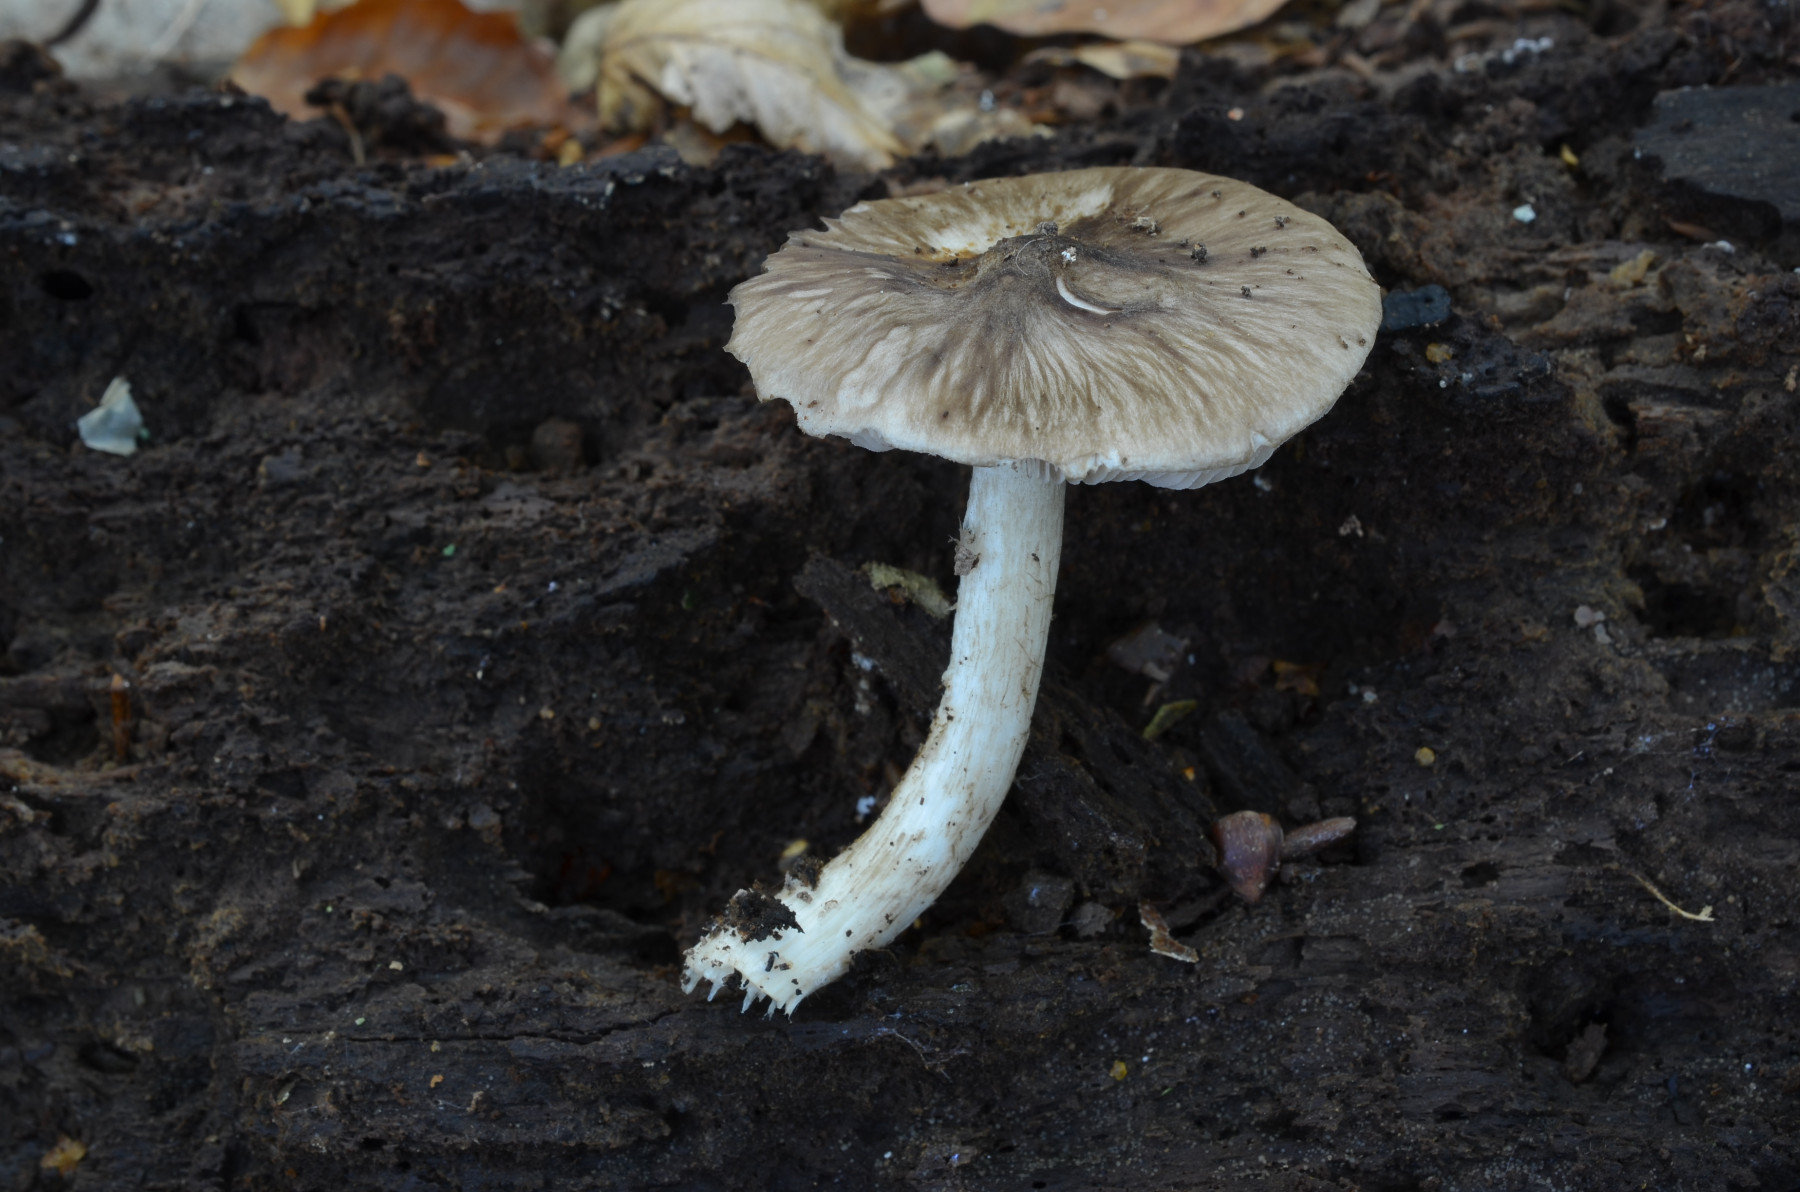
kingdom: Fungi
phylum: Basidiomycota
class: Agaricomycetes
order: Agaricales
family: Pluteaceae
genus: Pluteus
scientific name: Pluteus cervinus
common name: sodfarvet skærmhat
